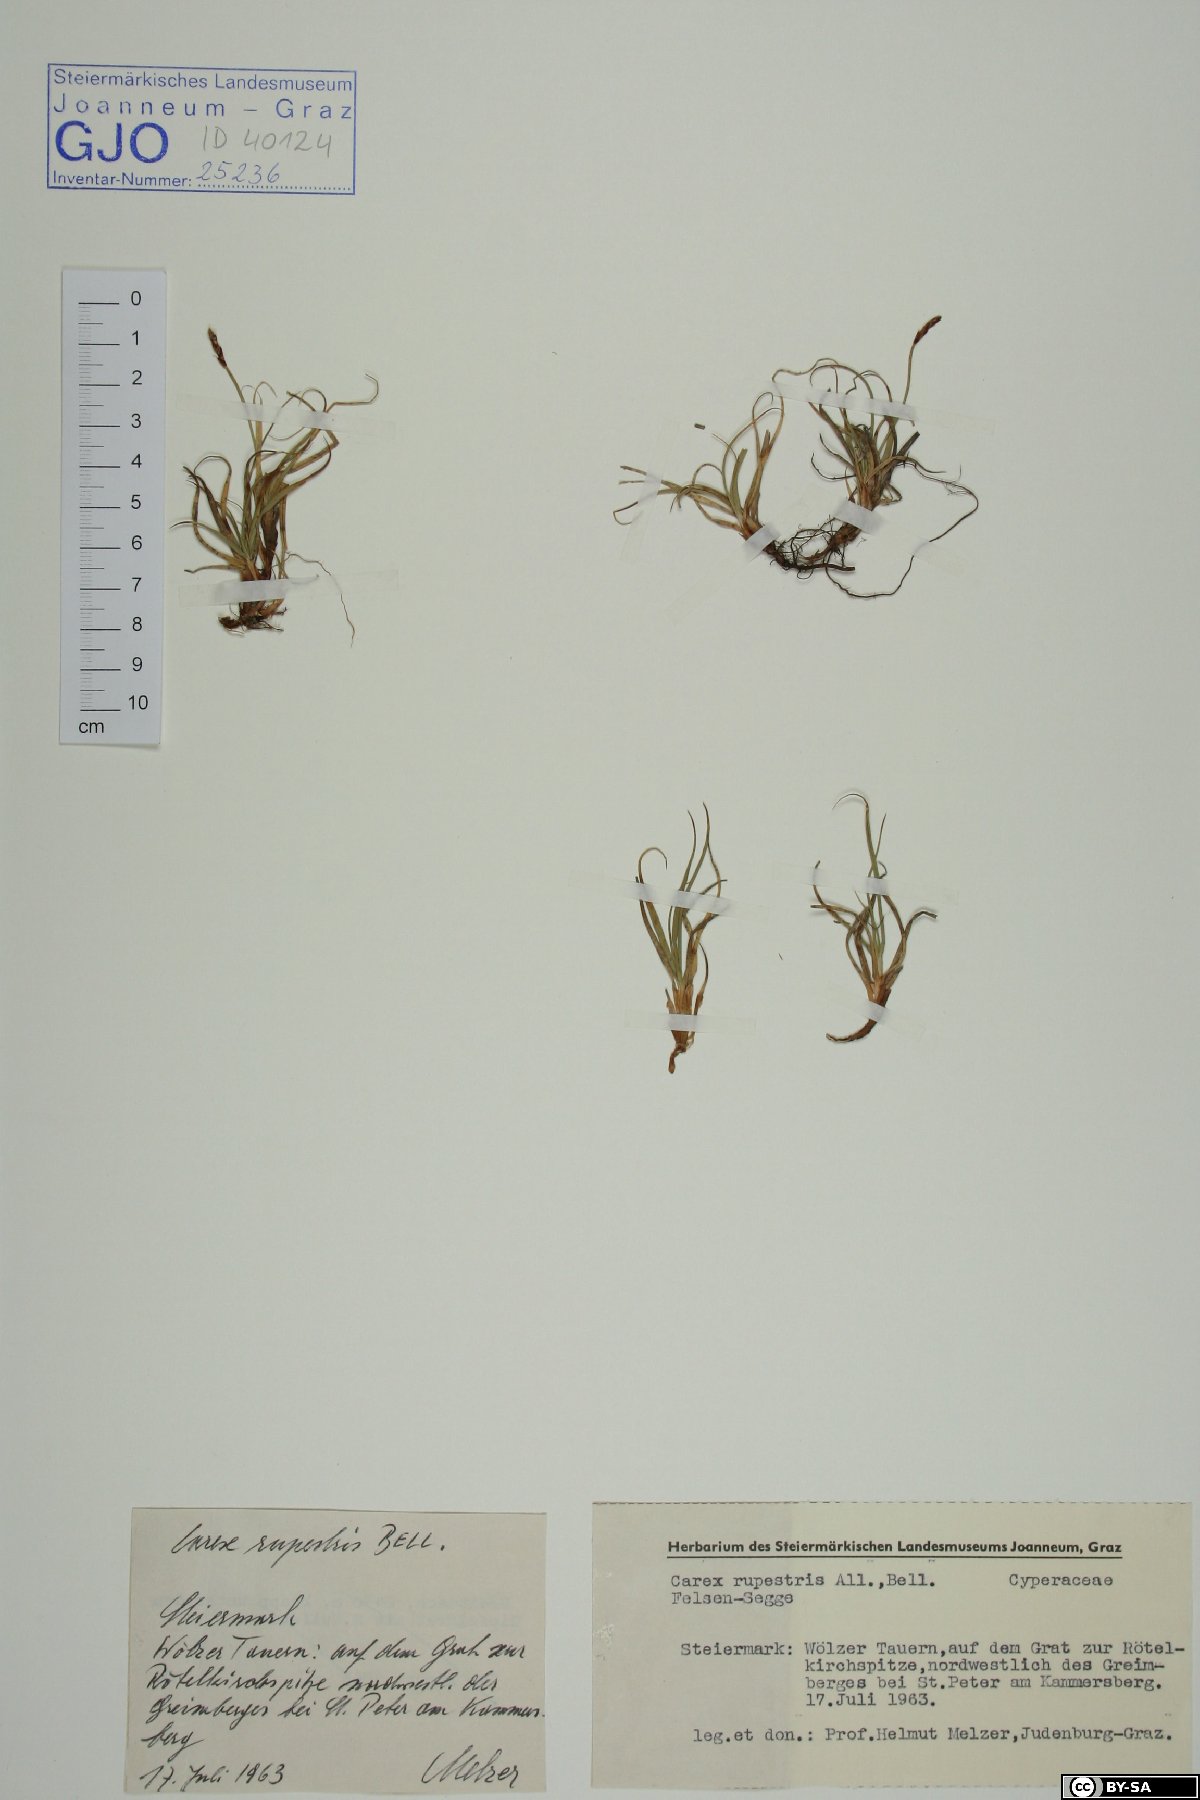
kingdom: Plantae
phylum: Tracheophyta
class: Liliopsida
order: Poales
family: Cyperaceae
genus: Carex
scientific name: Carex rupestris
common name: Rock sedge
